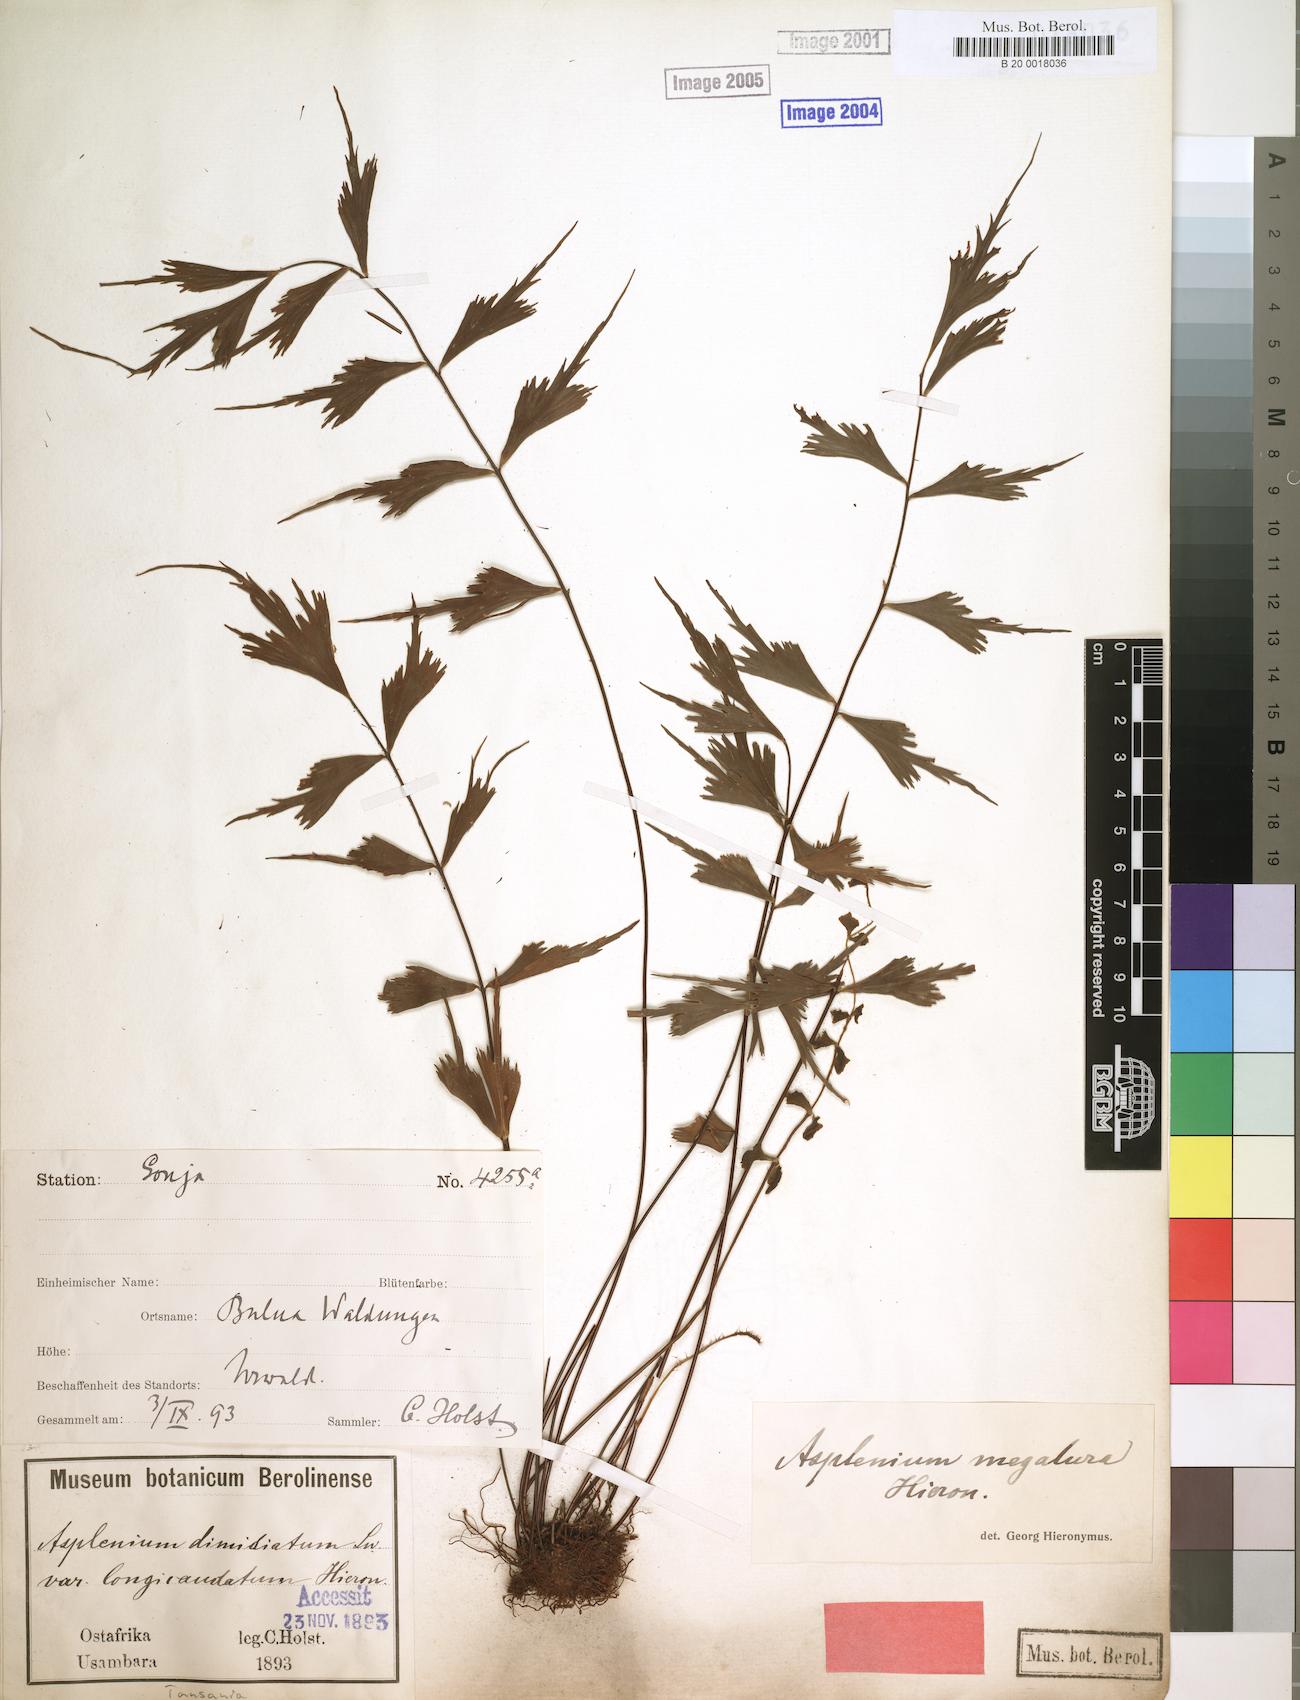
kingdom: Plantae
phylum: Tracheophyta
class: Polypodiopsida
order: Polypodiales
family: Aspleniaceae
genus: Asplenium
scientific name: Asplenium megalura
